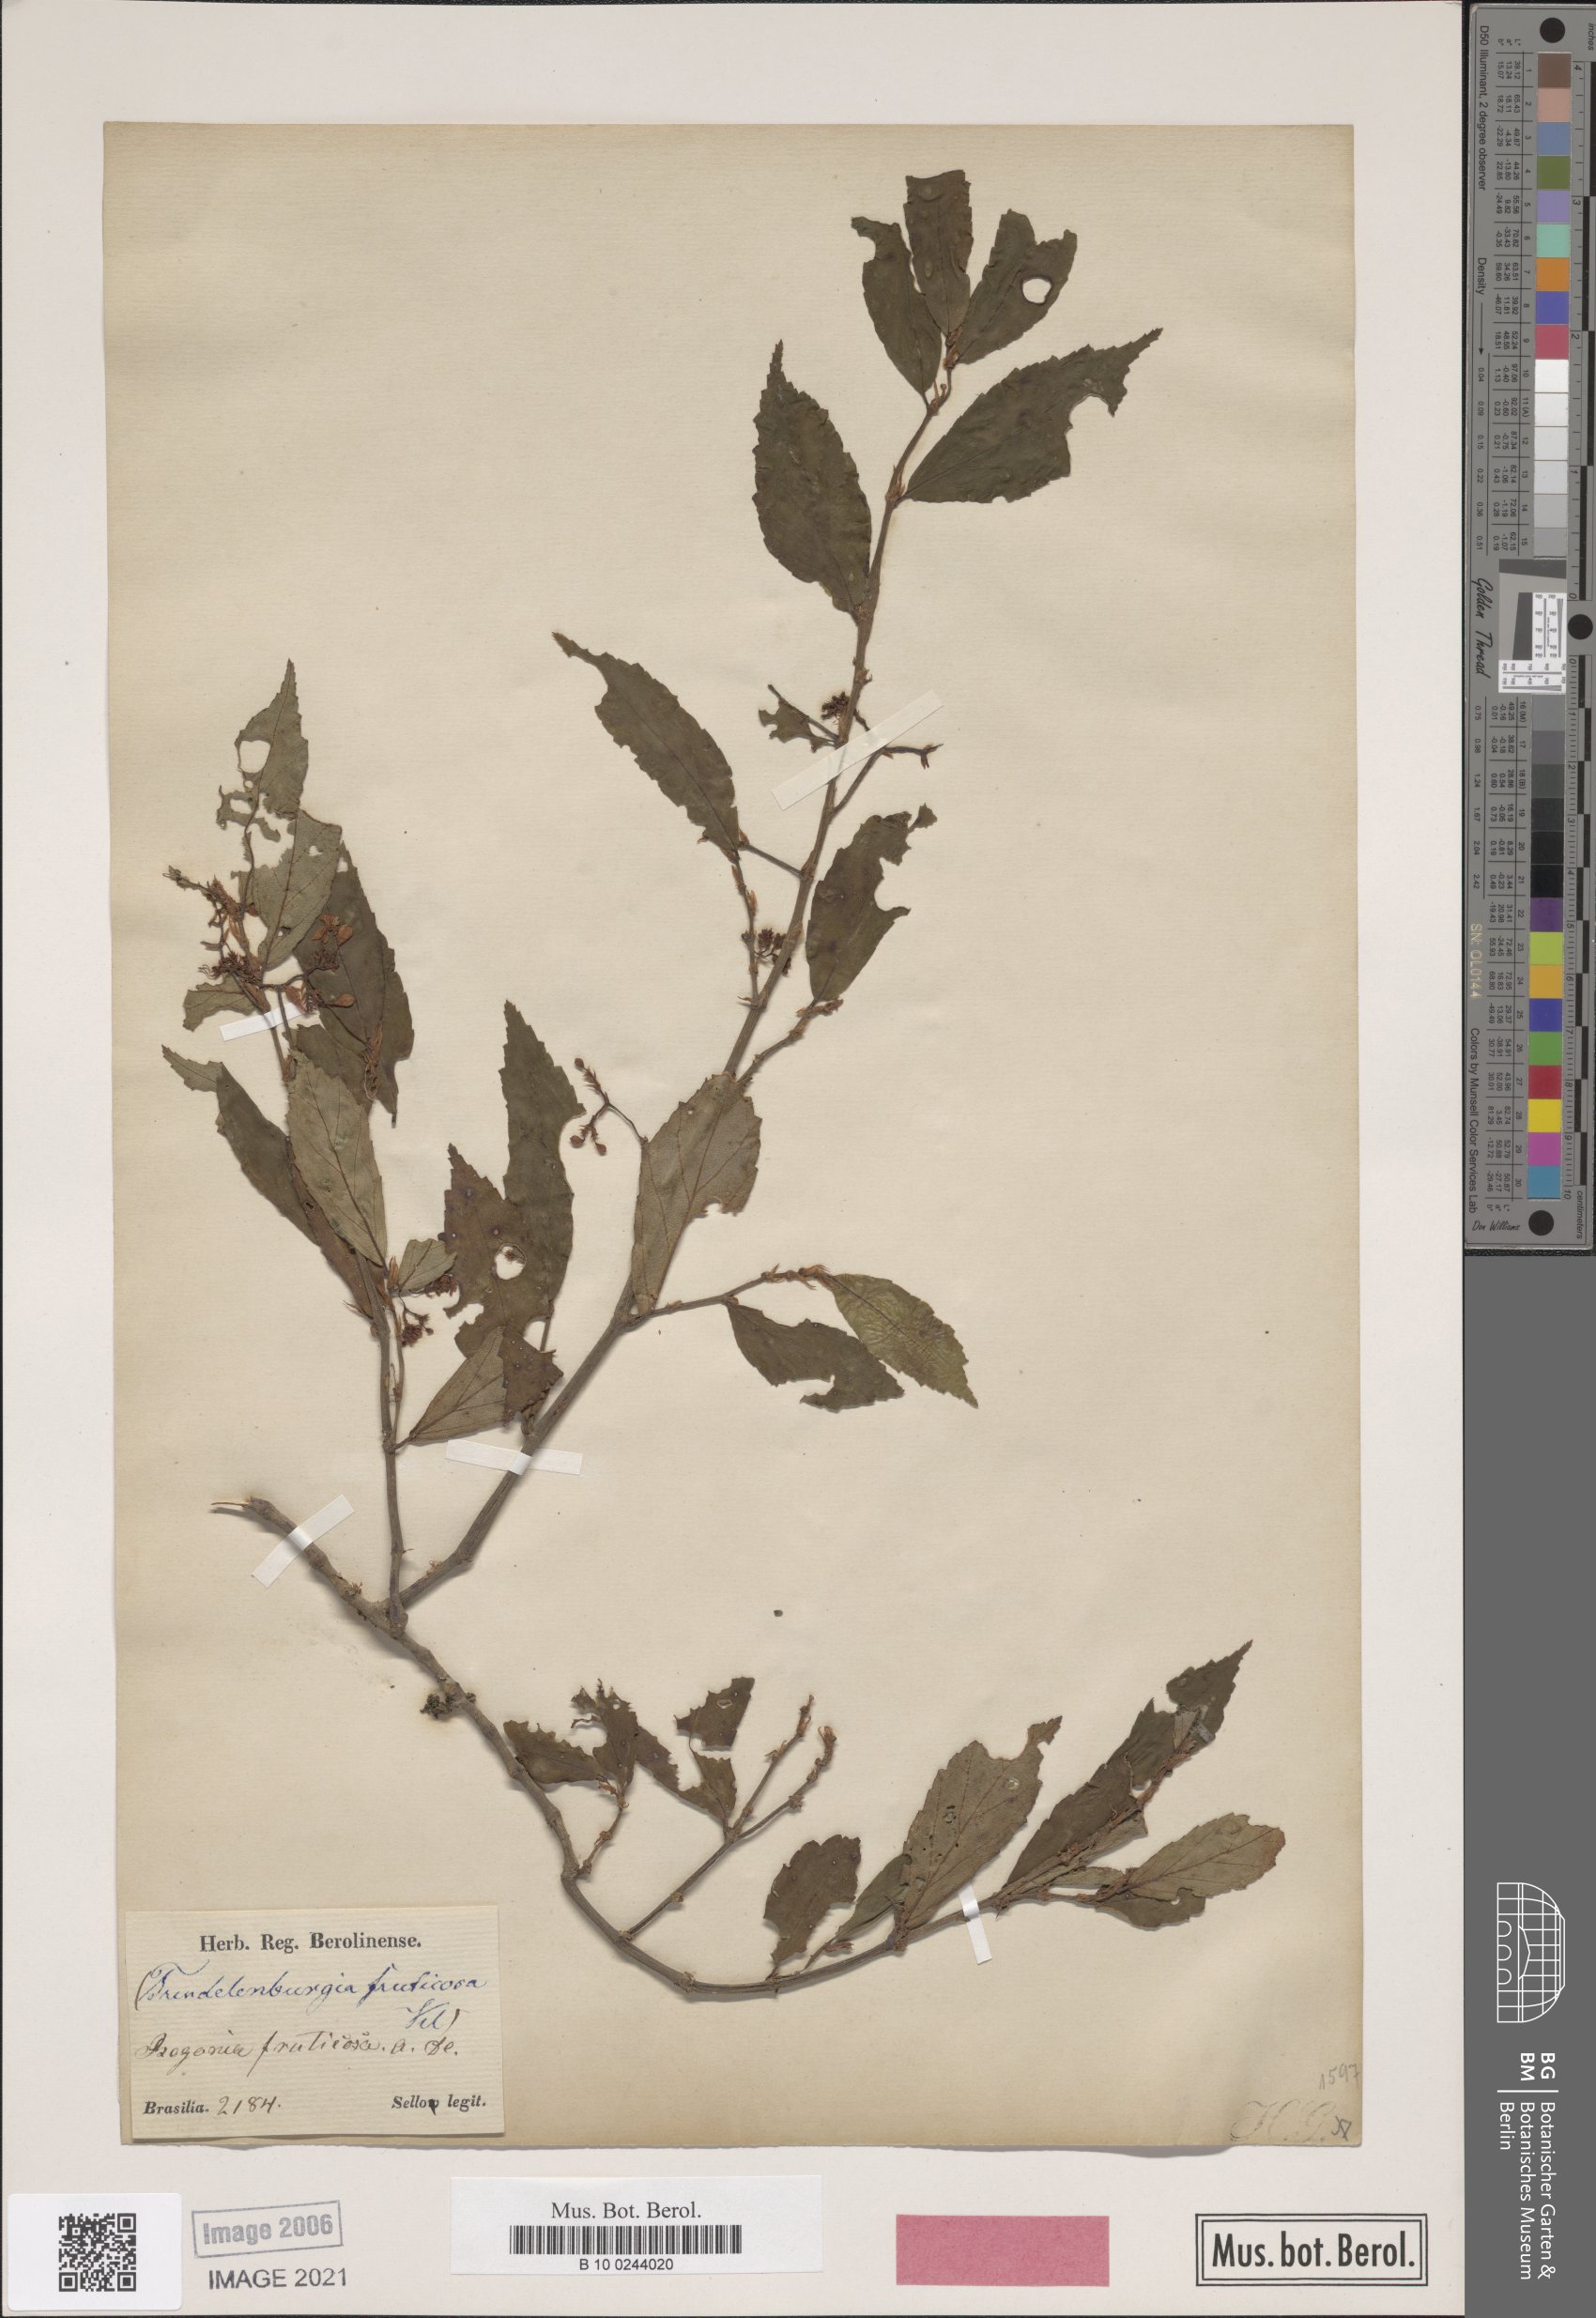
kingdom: Plantae
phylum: Tracheophyta
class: Magnoliopsida
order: Cucurbitales
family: Begoniaceae
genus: Begonia
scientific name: Begonia fruticosa
